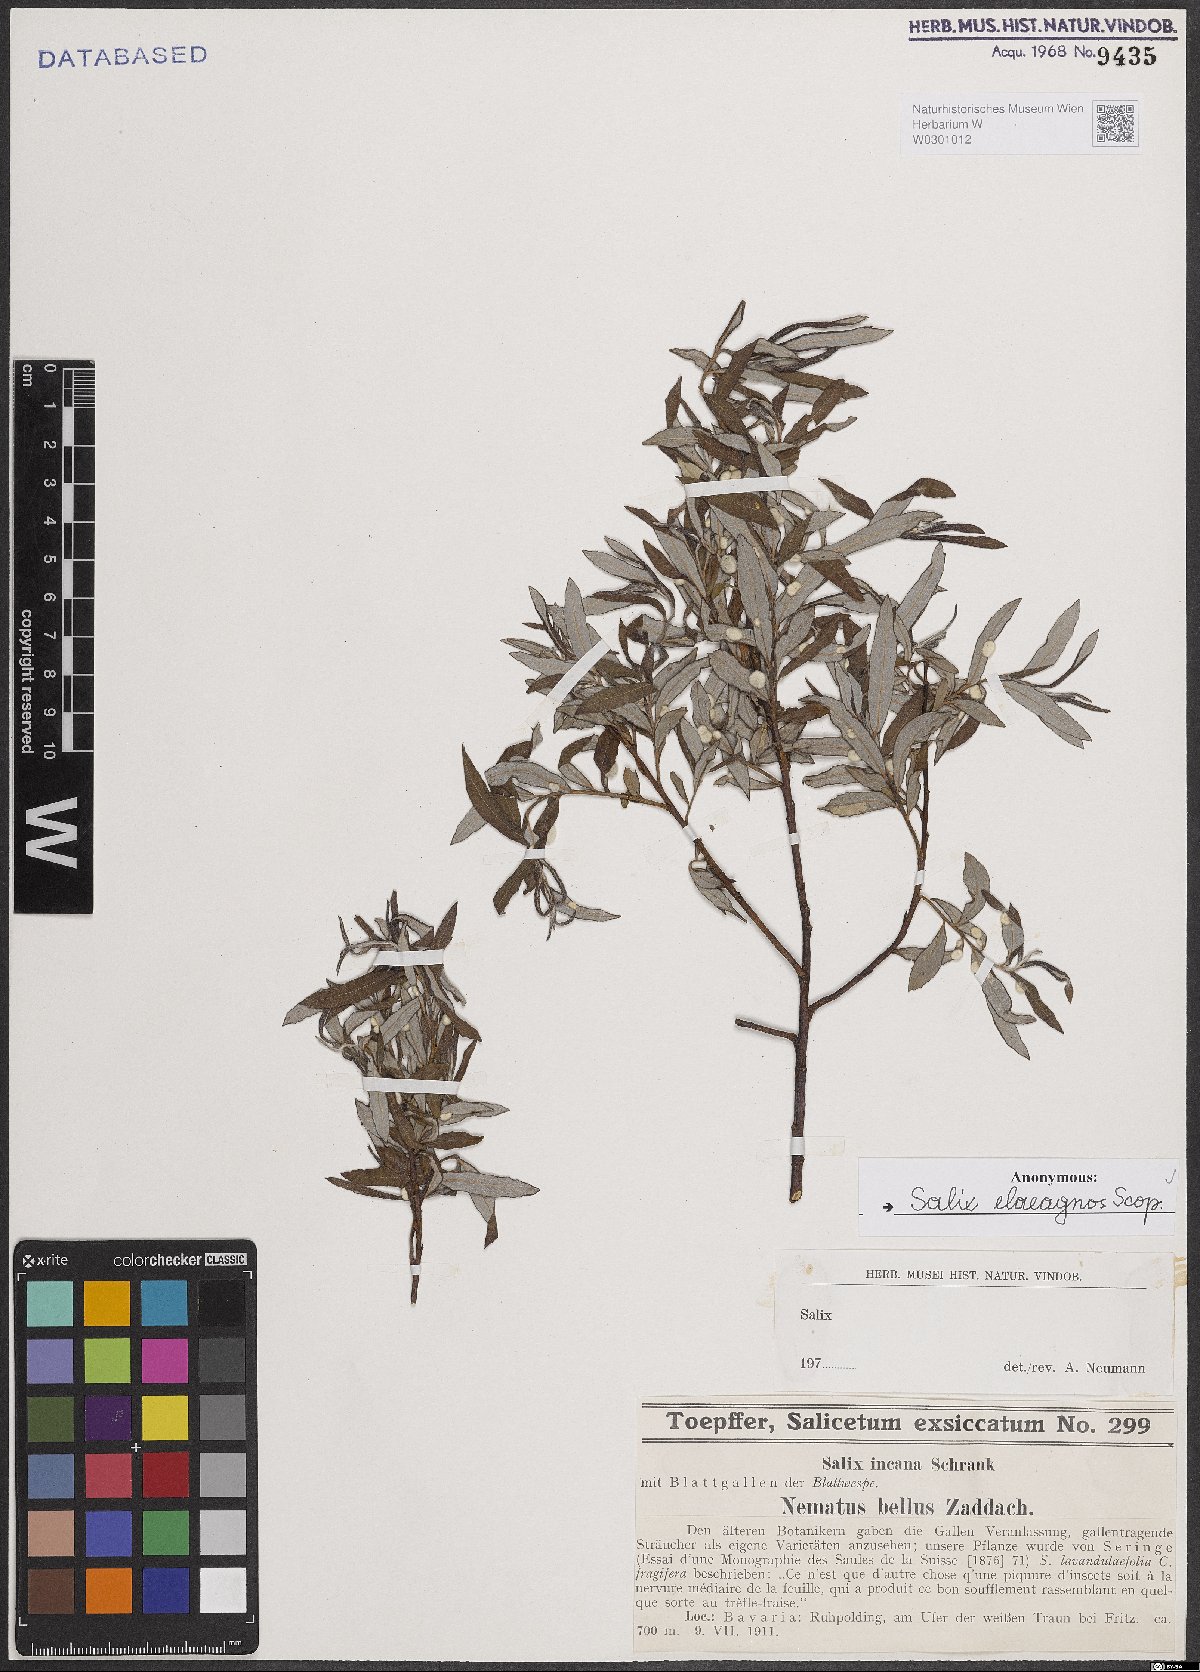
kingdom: Plantae
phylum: Tracheophyta
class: Magnoliopsida
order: Malpighiales
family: Salicaceae
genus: Salix
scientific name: Salix eleagnos
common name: Elaeagnus willow
